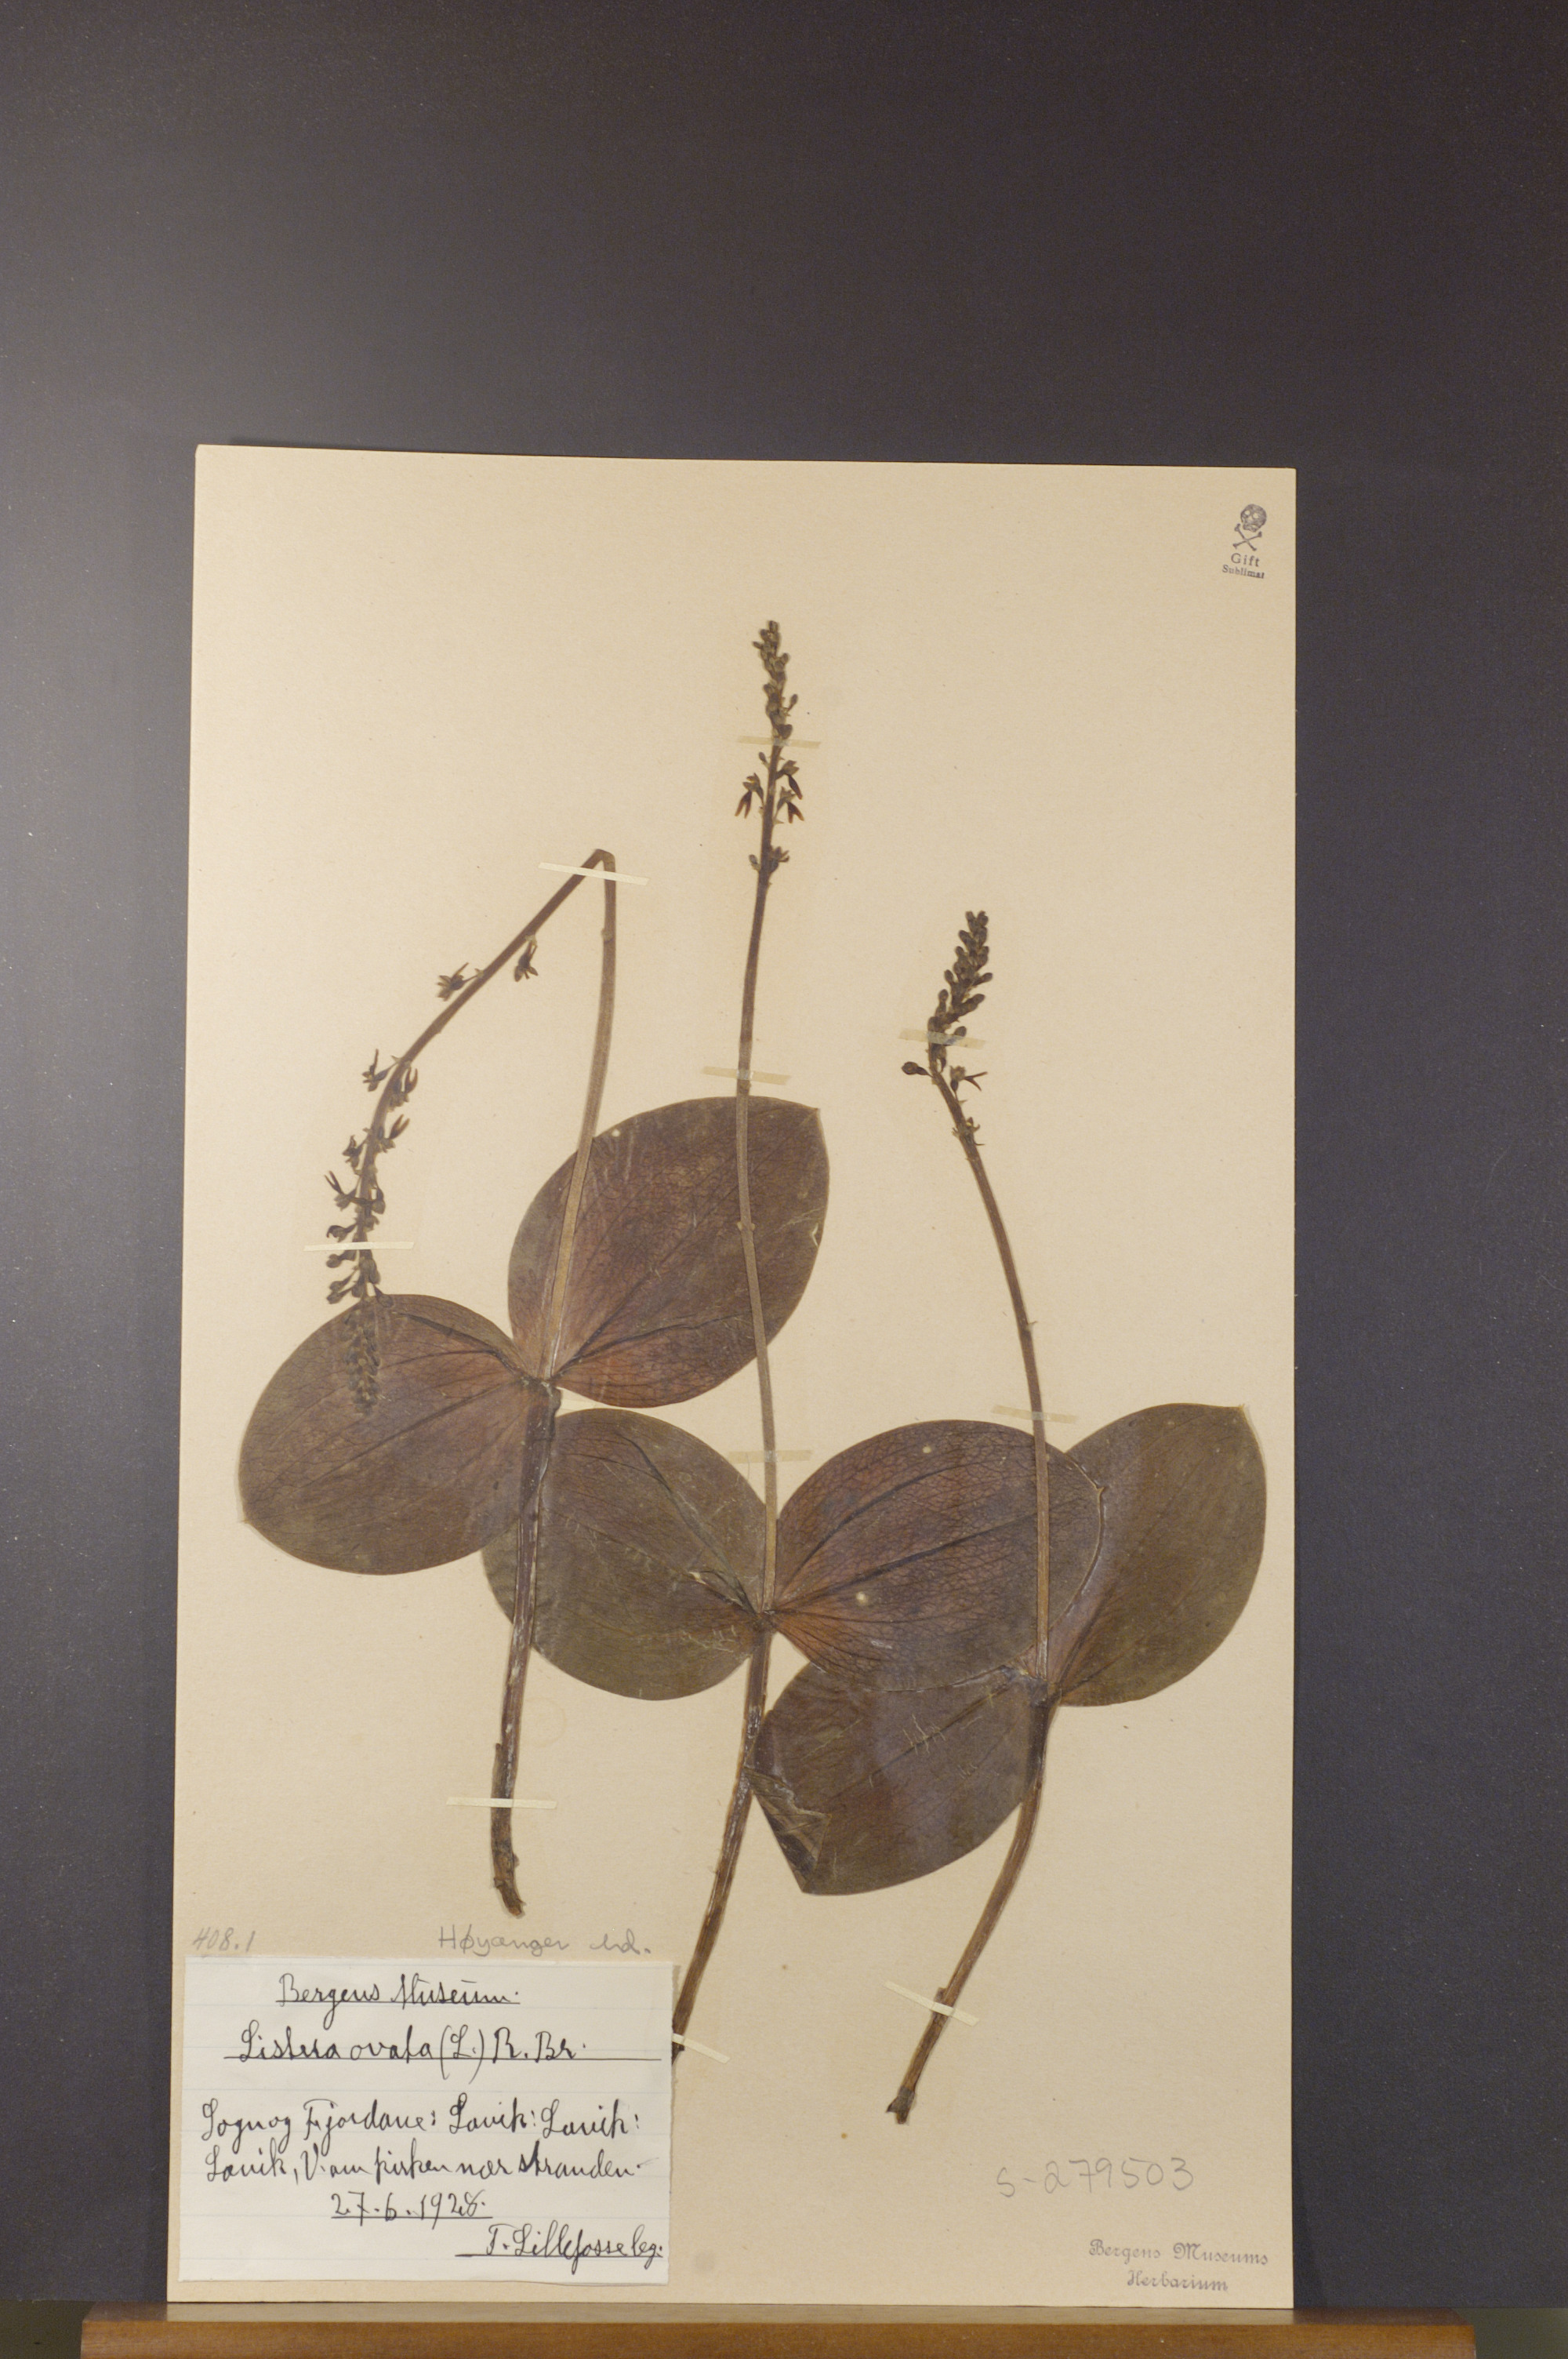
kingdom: Plantae
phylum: Tracheophyta
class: Liliopsida
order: Asparagales
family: Orchidaceae
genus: Neottia
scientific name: Neottia ovata
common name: Common twayblade
